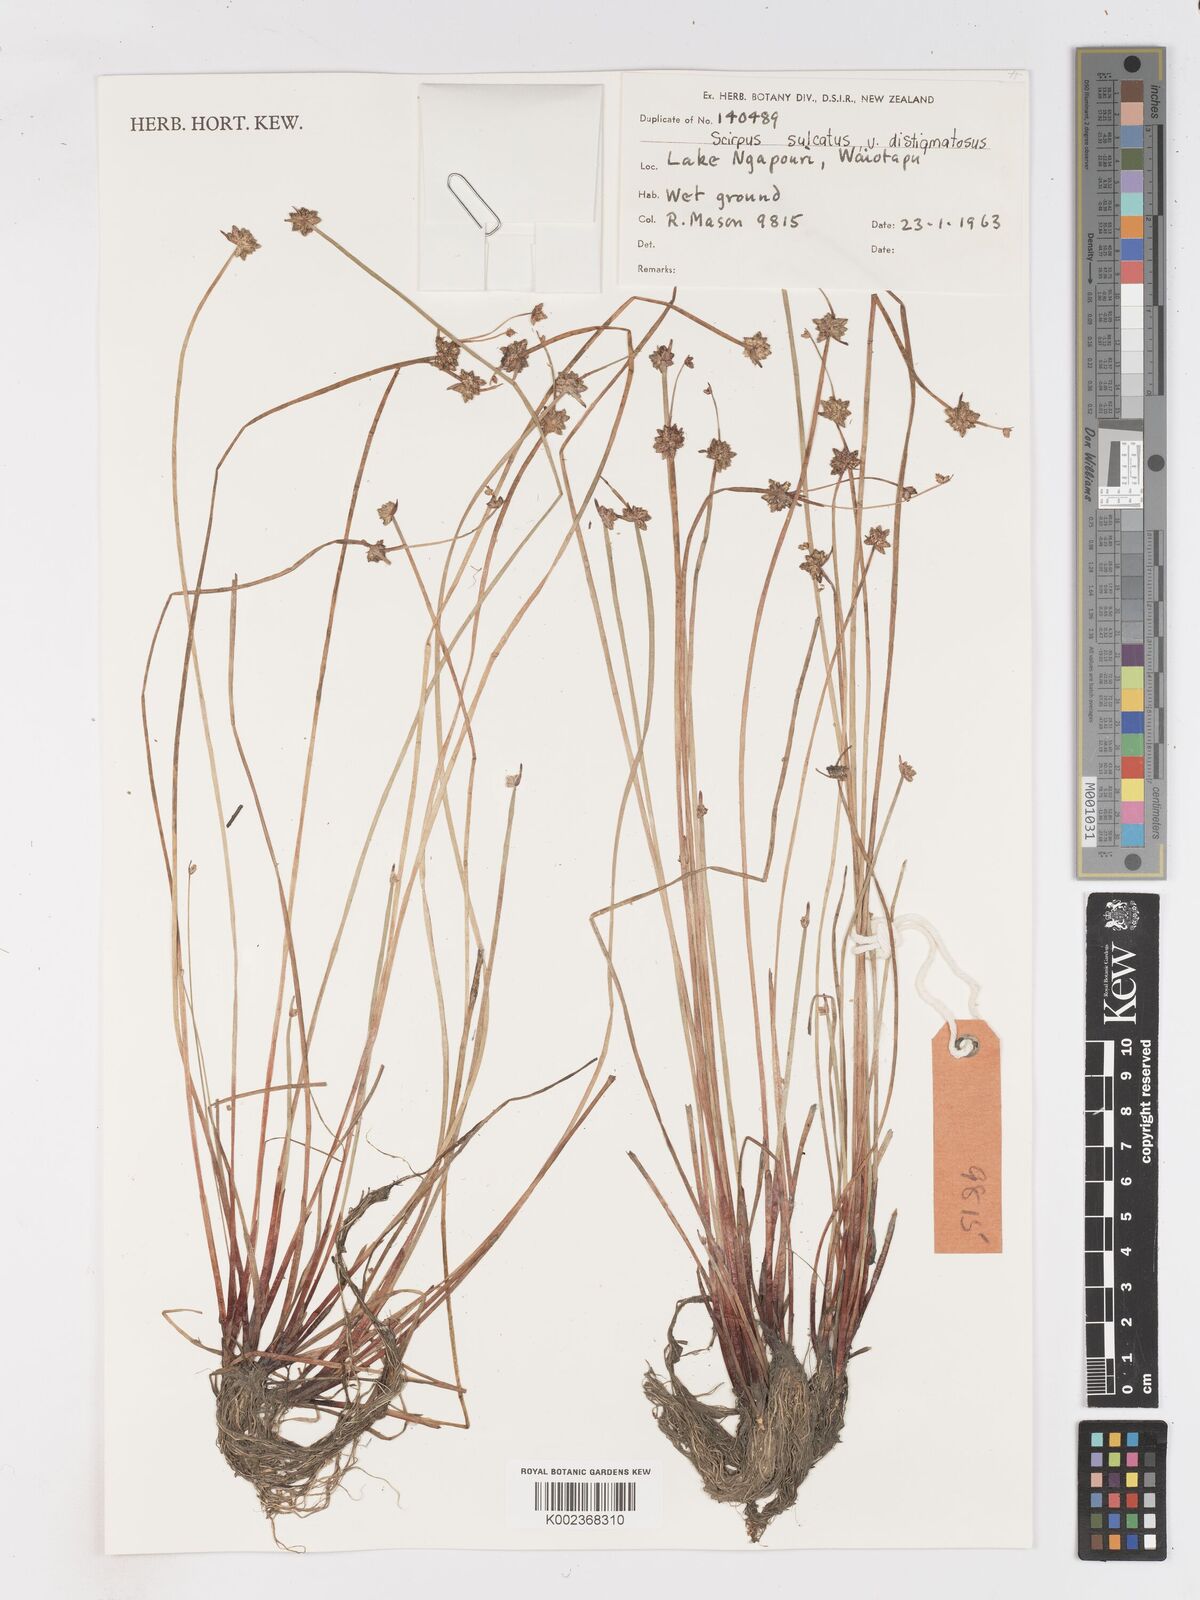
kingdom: Plantae
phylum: Tracheophyta
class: Liliopsida
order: Poales
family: Cyperaceae
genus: Isolepis
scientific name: Isolepis sulcata
